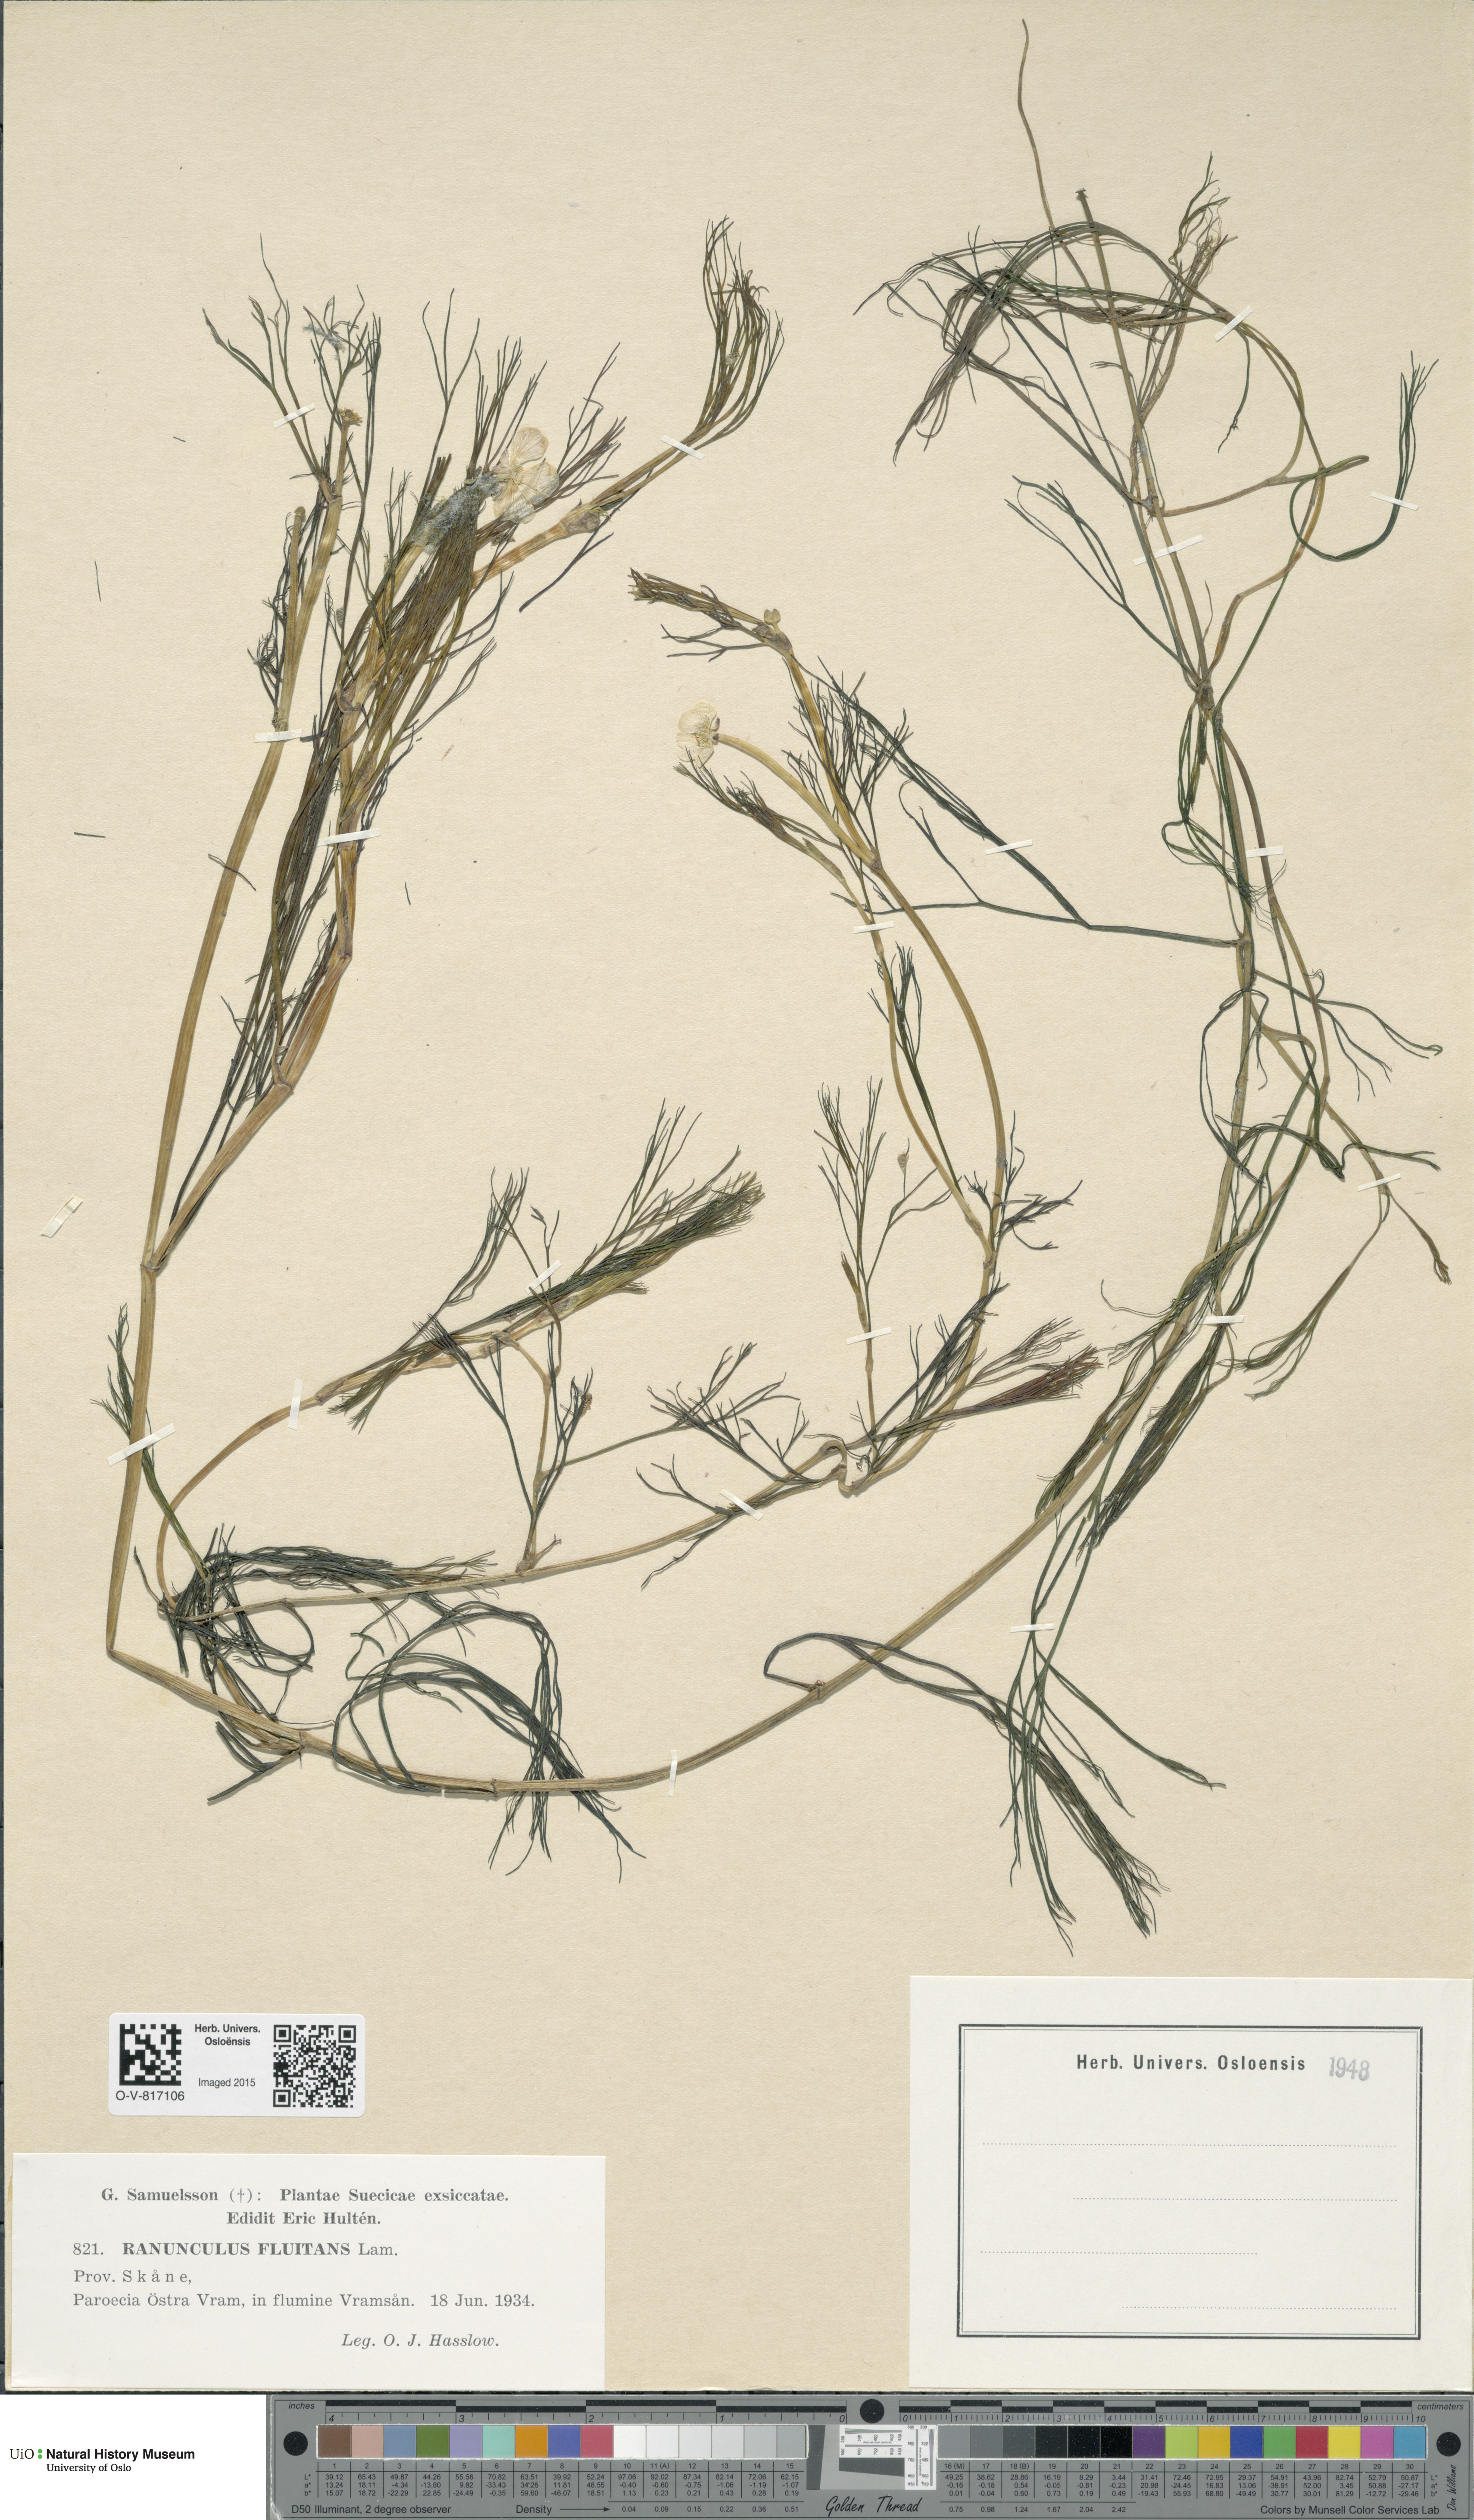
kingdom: Plantae
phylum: Tracheophyta
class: Magnoliopsida
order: Ranunculales
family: Ranunculaceae
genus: Ranunculus
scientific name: Ranunculus fluitans
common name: River water-crowfoot
